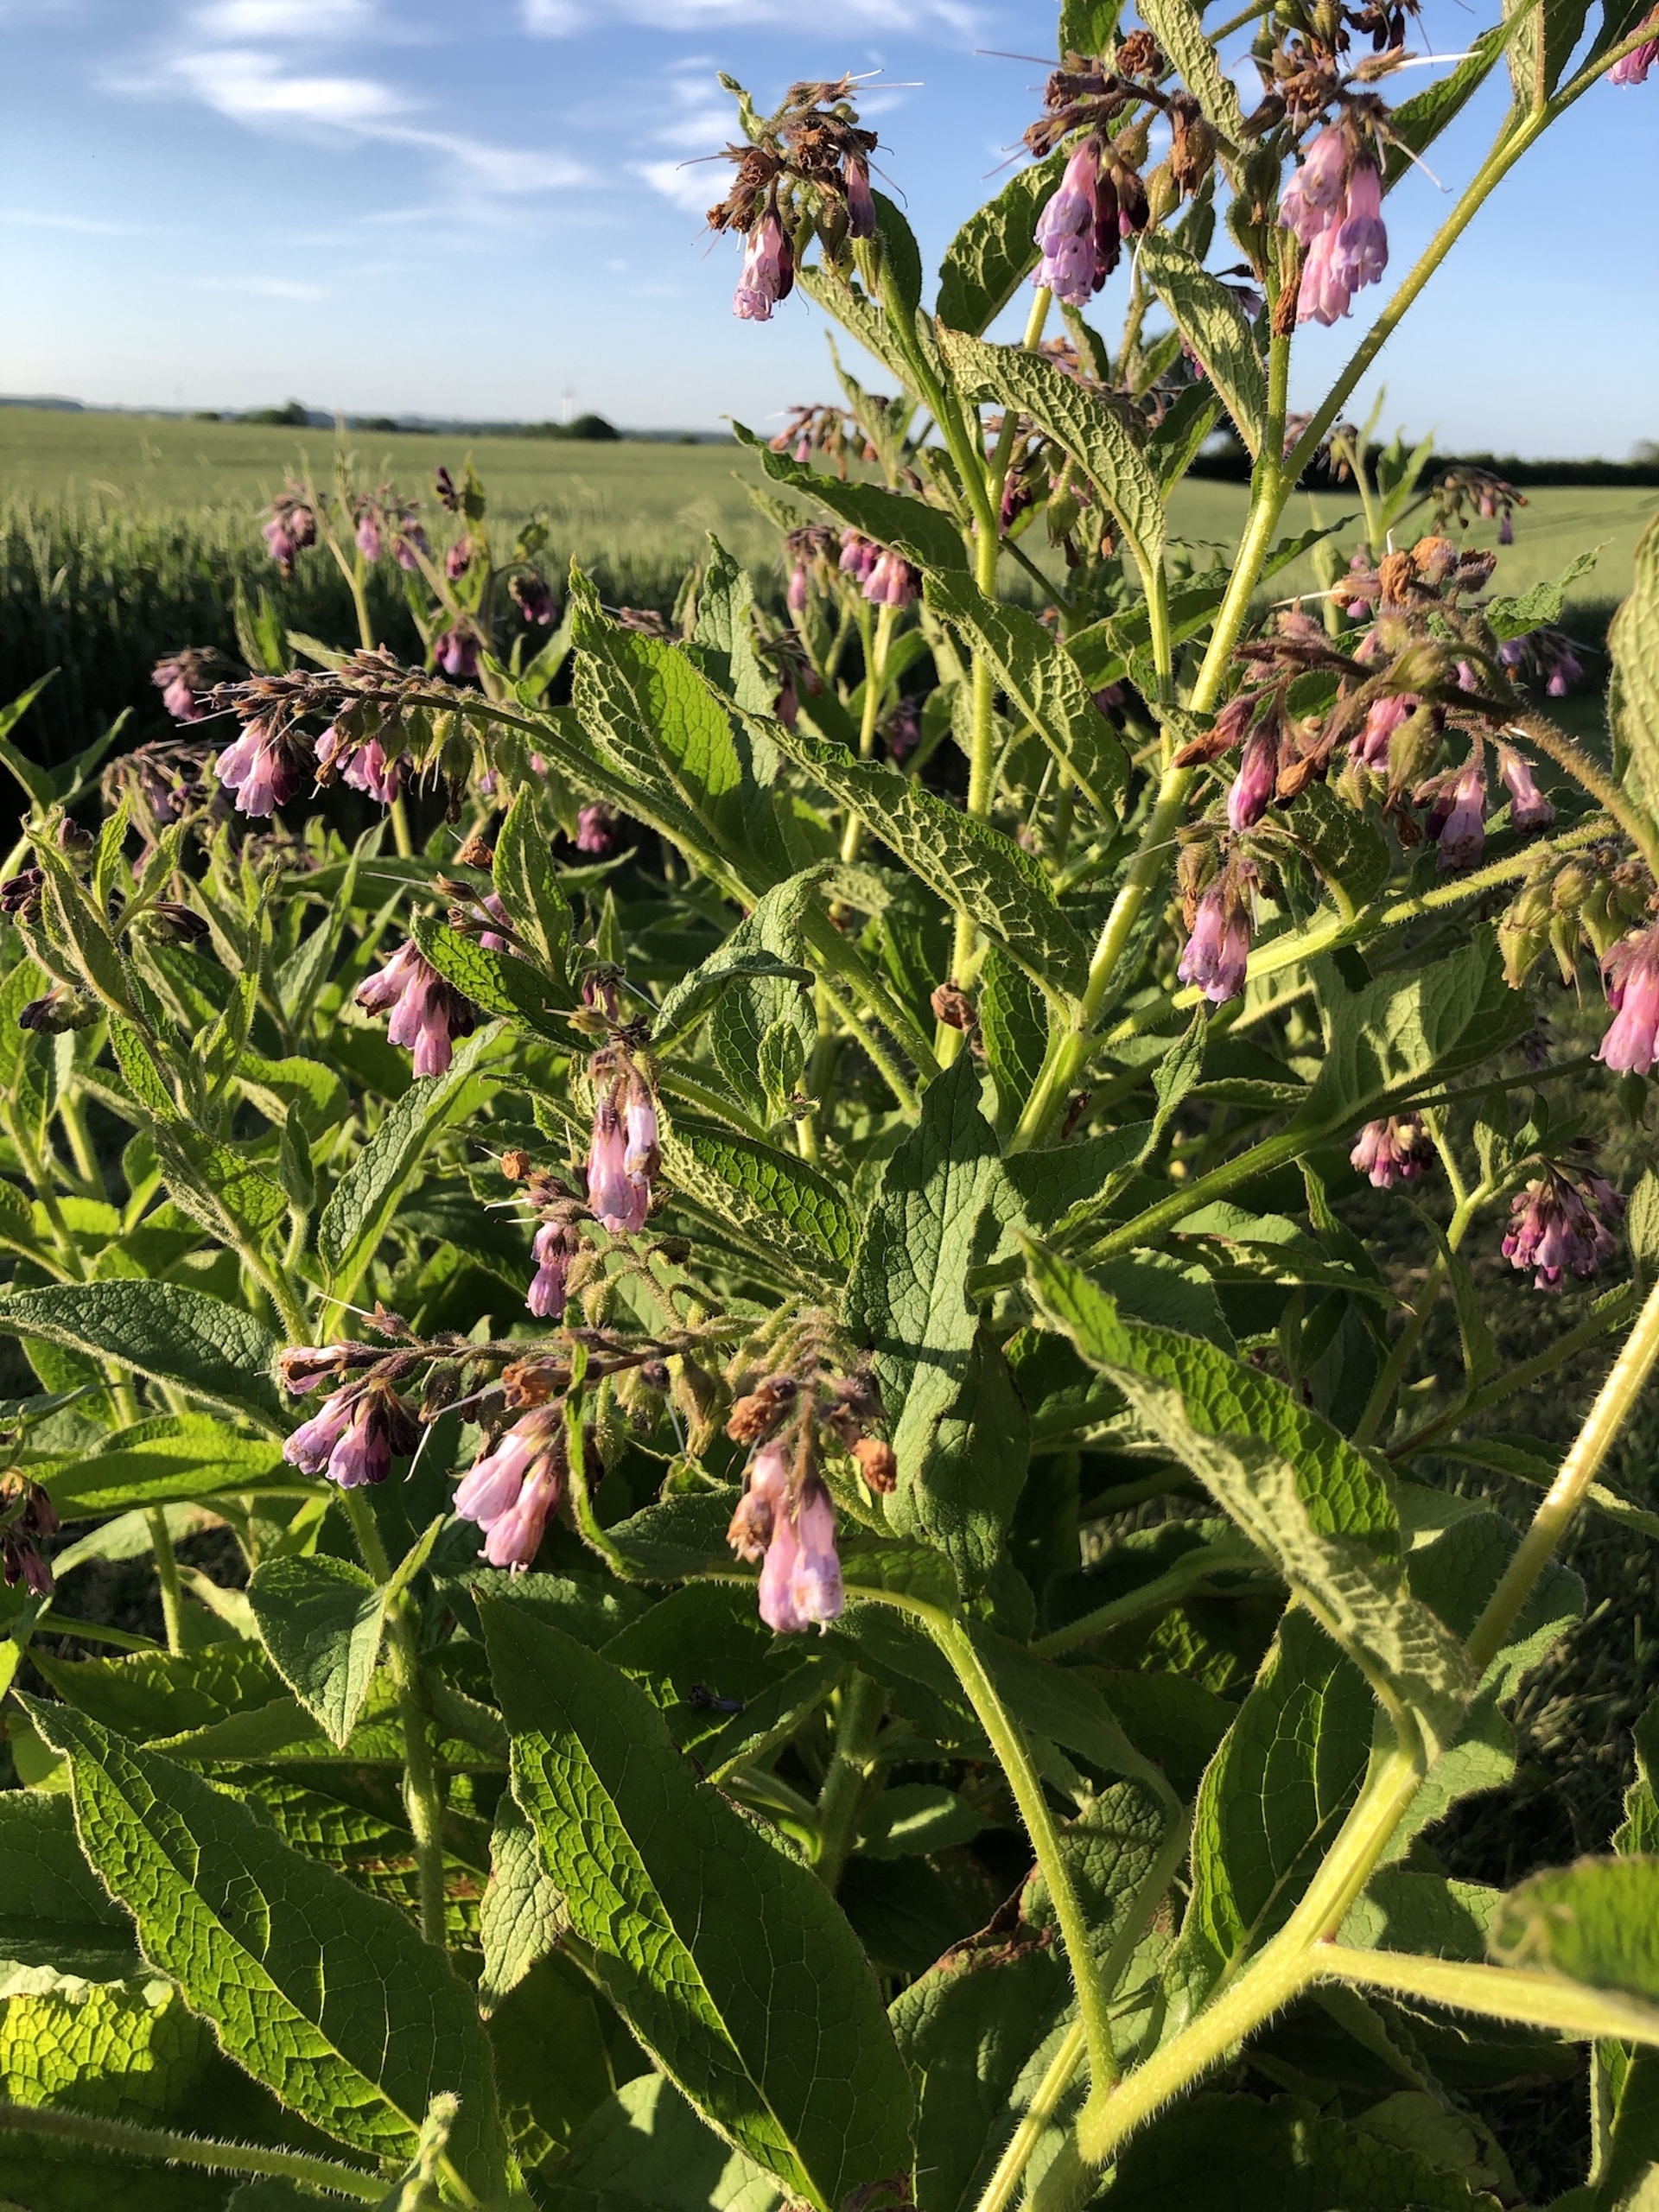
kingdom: Plantae
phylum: Tracheophyta
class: Magnoliopsida
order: Boraginales
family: Boraginaceae
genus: Symphytum
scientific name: Symphytum uplandicum
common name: Foder-kulsukker
